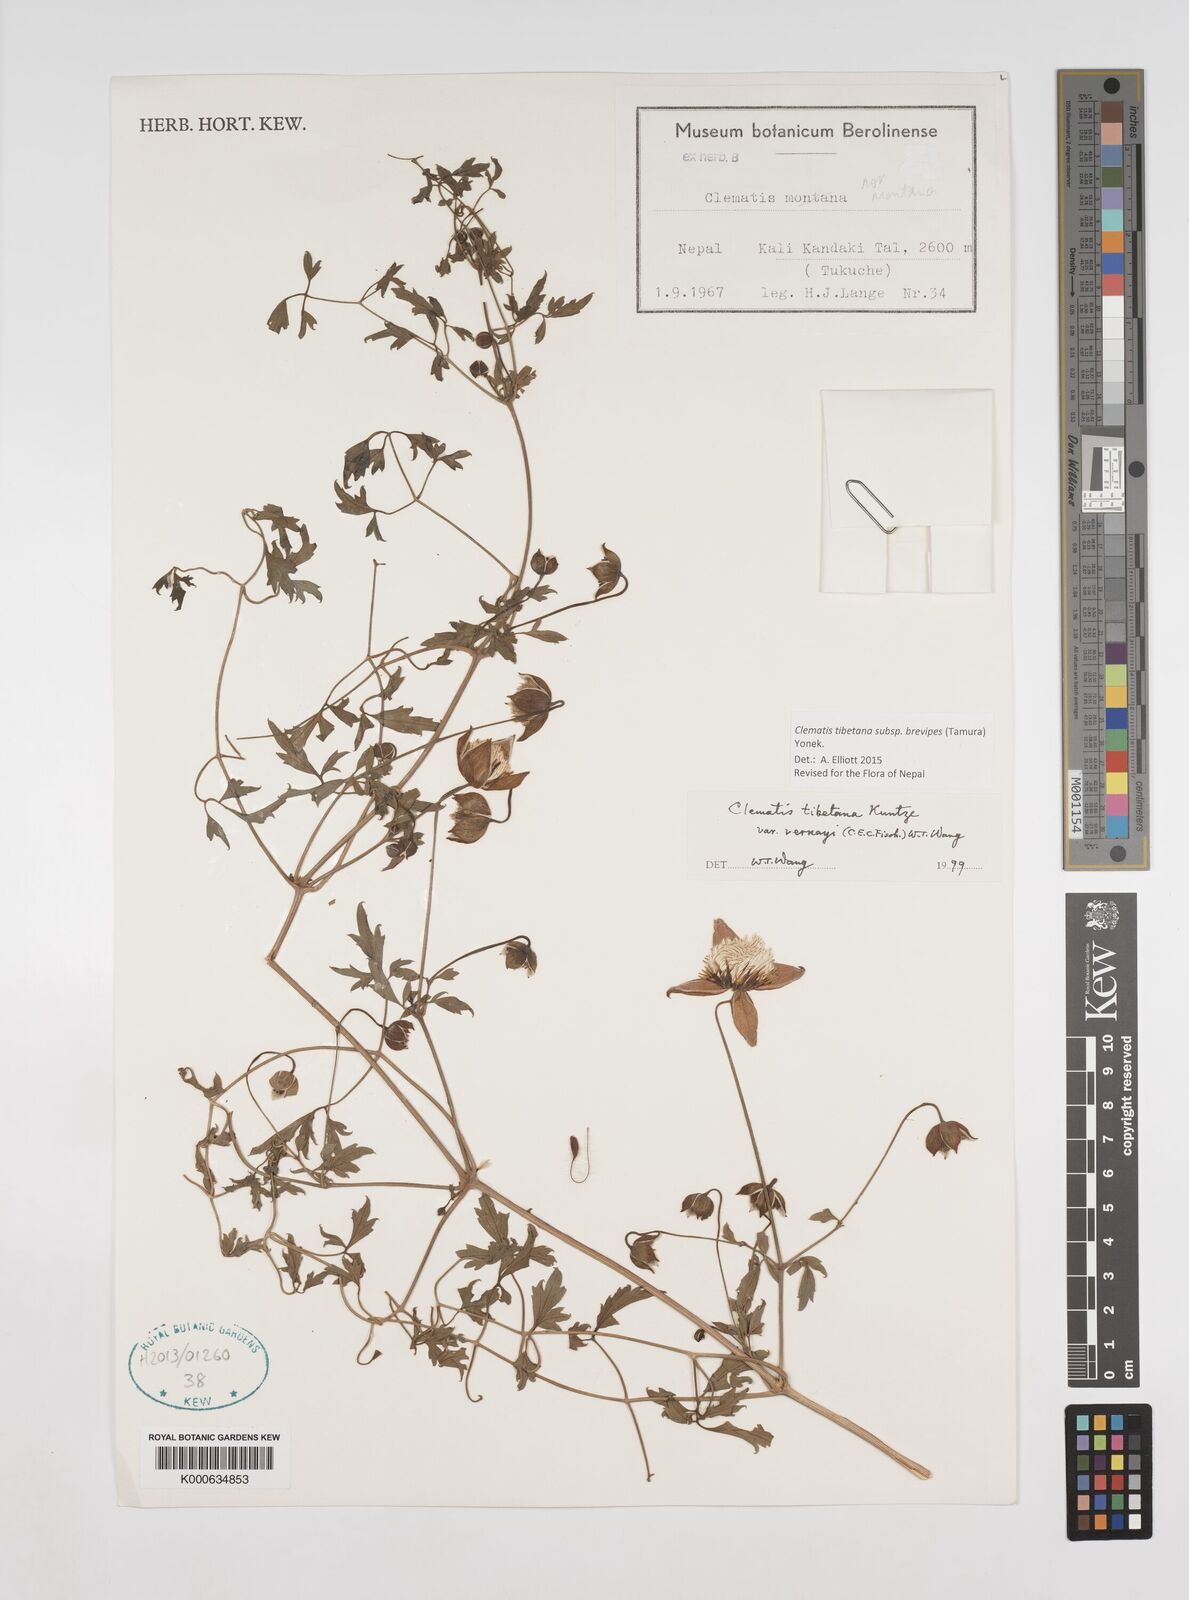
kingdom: Plantae
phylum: Tracheophyta
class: Magnoliopsida
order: Ranunculales
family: Ranunculaceae
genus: Clematis
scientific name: Clematis tibetana
